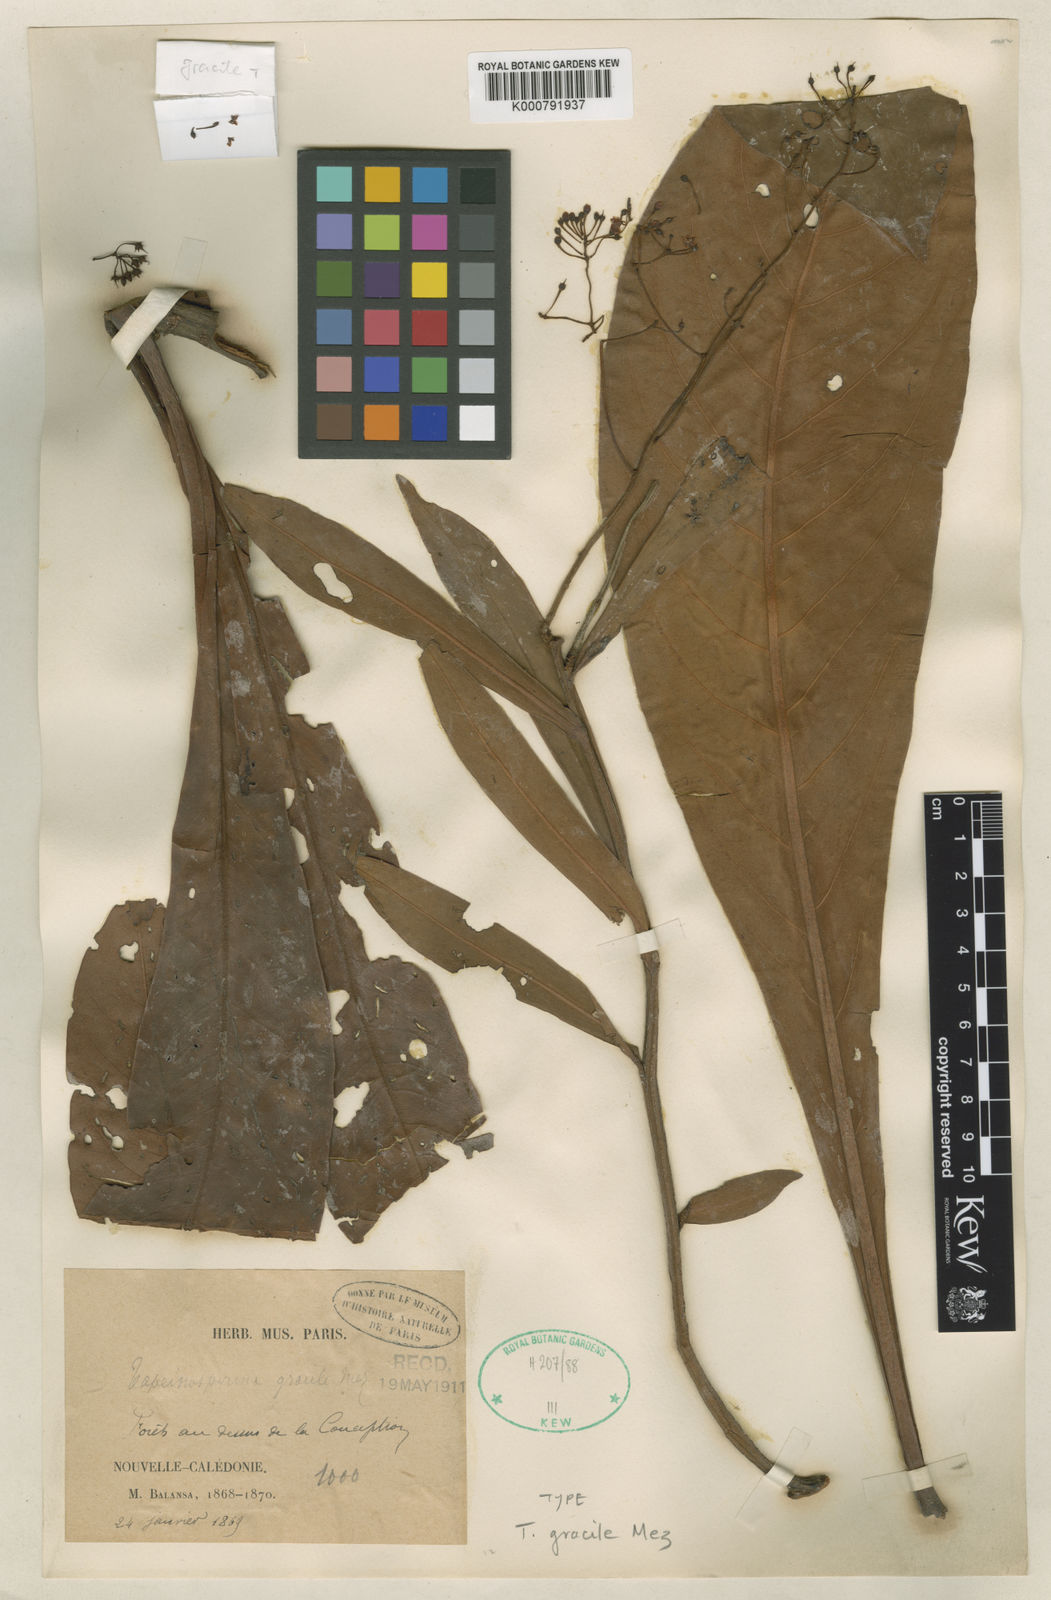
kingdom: Plantae
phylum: Tracheophyta
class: Magnoliopsida
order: Ericales
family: Primulaceae
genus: Tapeinosperma
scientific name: Tapeinosperma gracile
